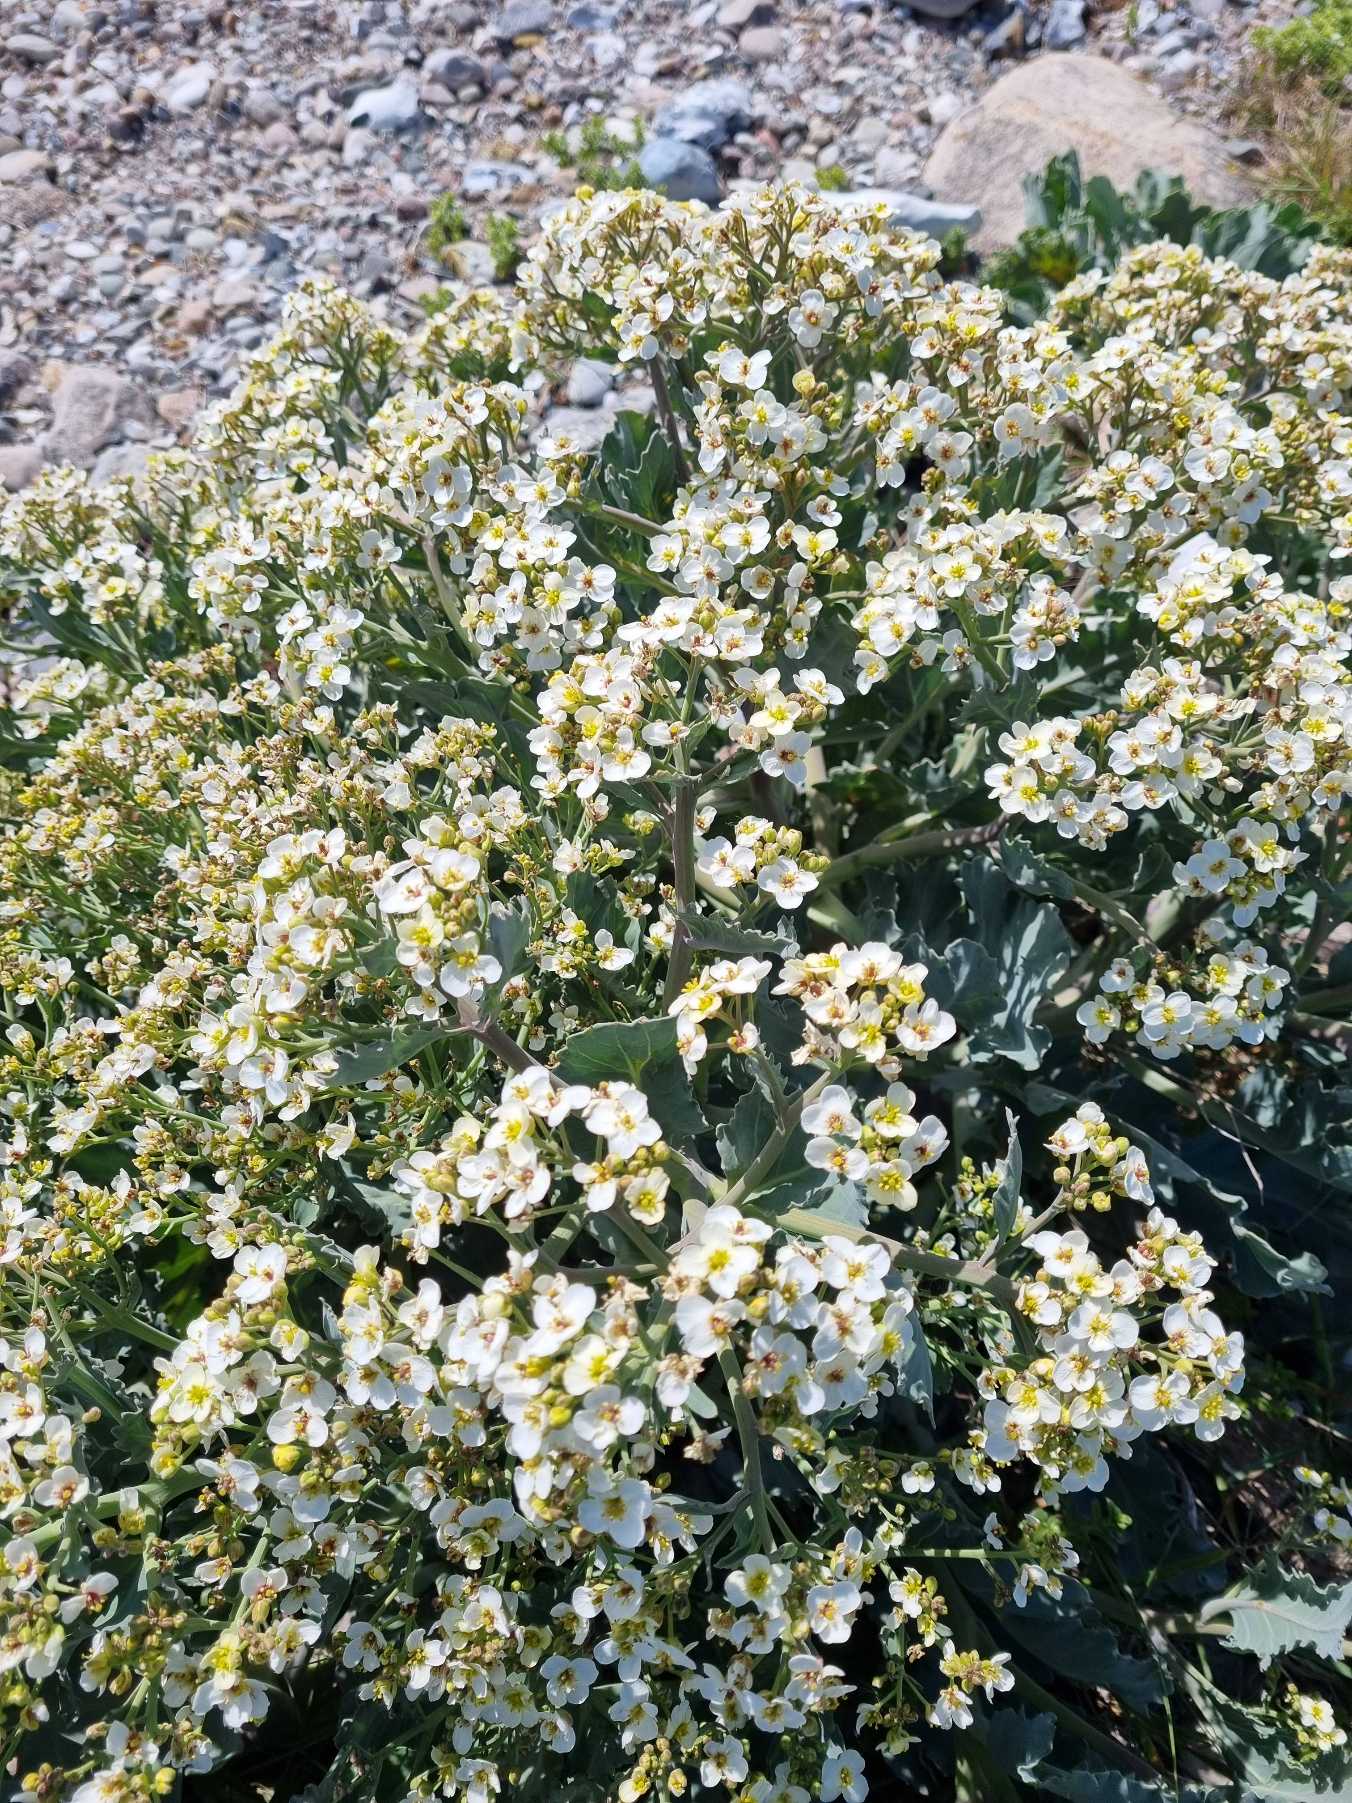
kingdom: Plantae
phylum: Tracheophyta
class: Magnoliopsida
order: Brassicales
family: Brassicaceae
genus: Crambe
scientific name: Crambe maritima
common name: Strandkål
